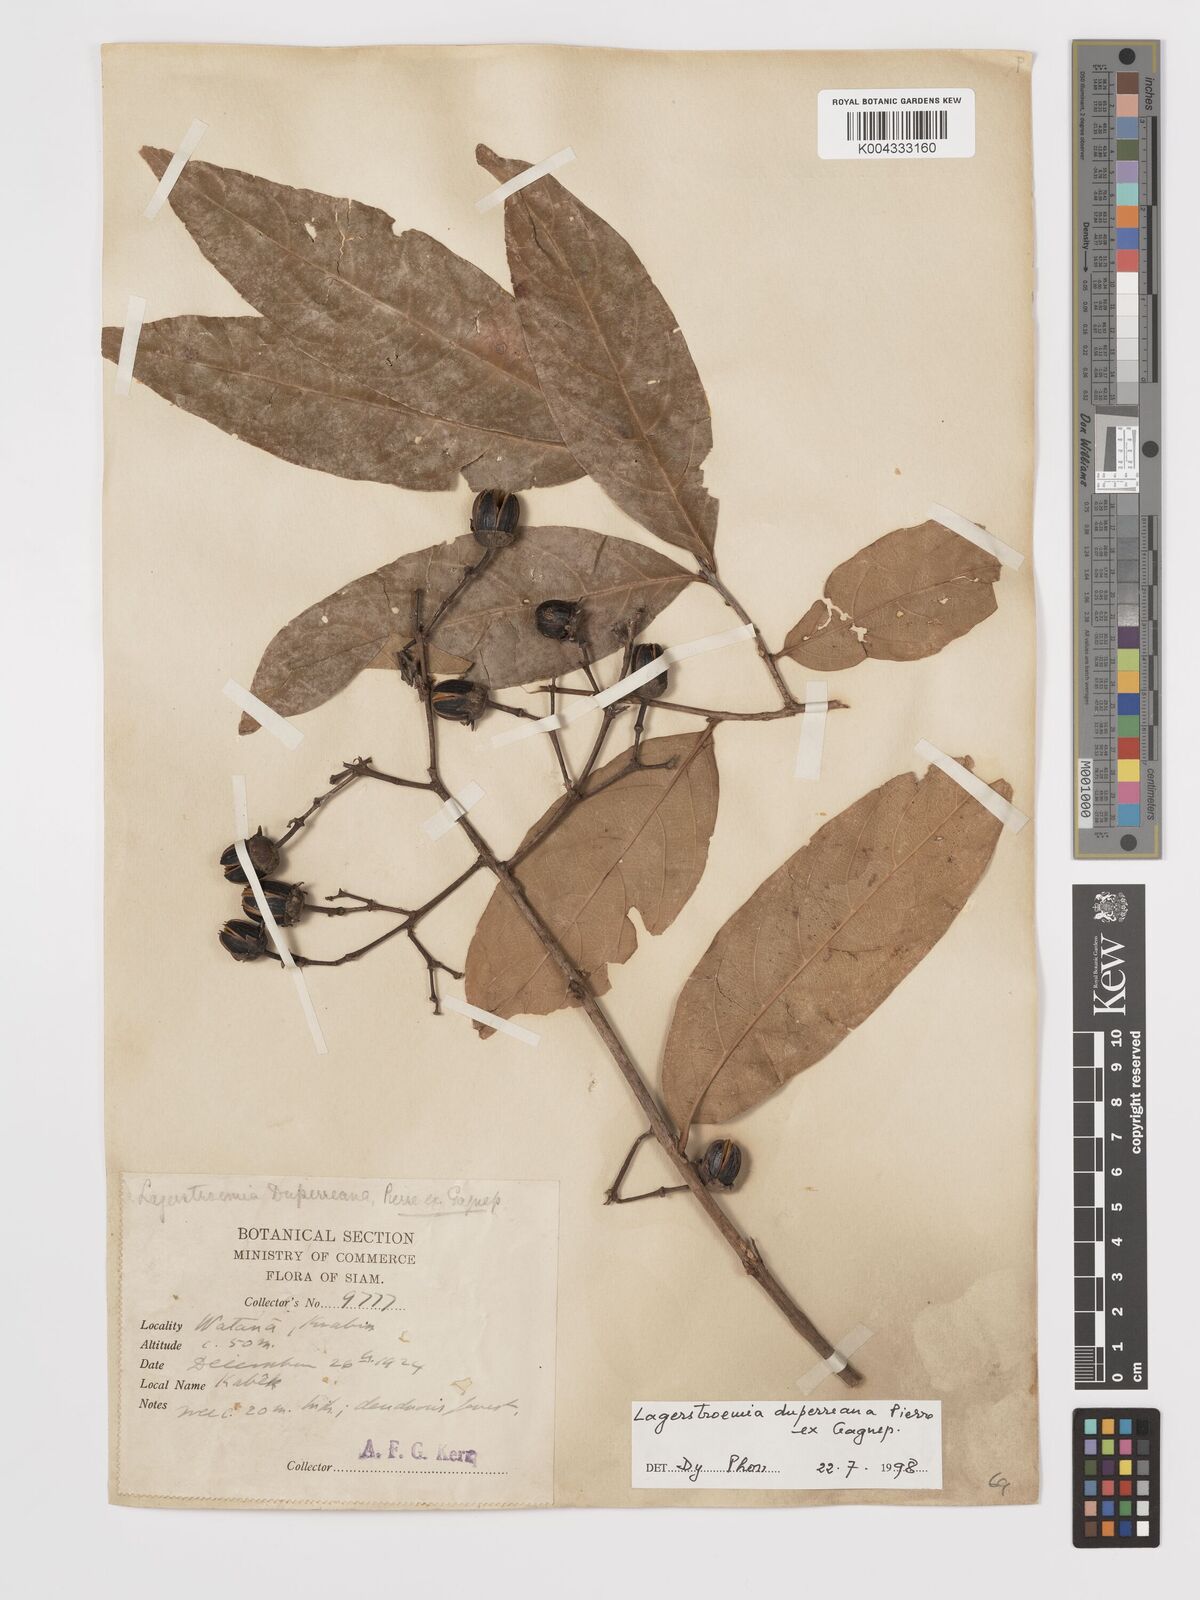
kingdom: Plantae
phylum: Tracheophyta
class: Magnoliopsida
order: Myrtales
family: Lythraceae
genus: Lagerstroemia
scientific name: Lagerstroemia duperreana
